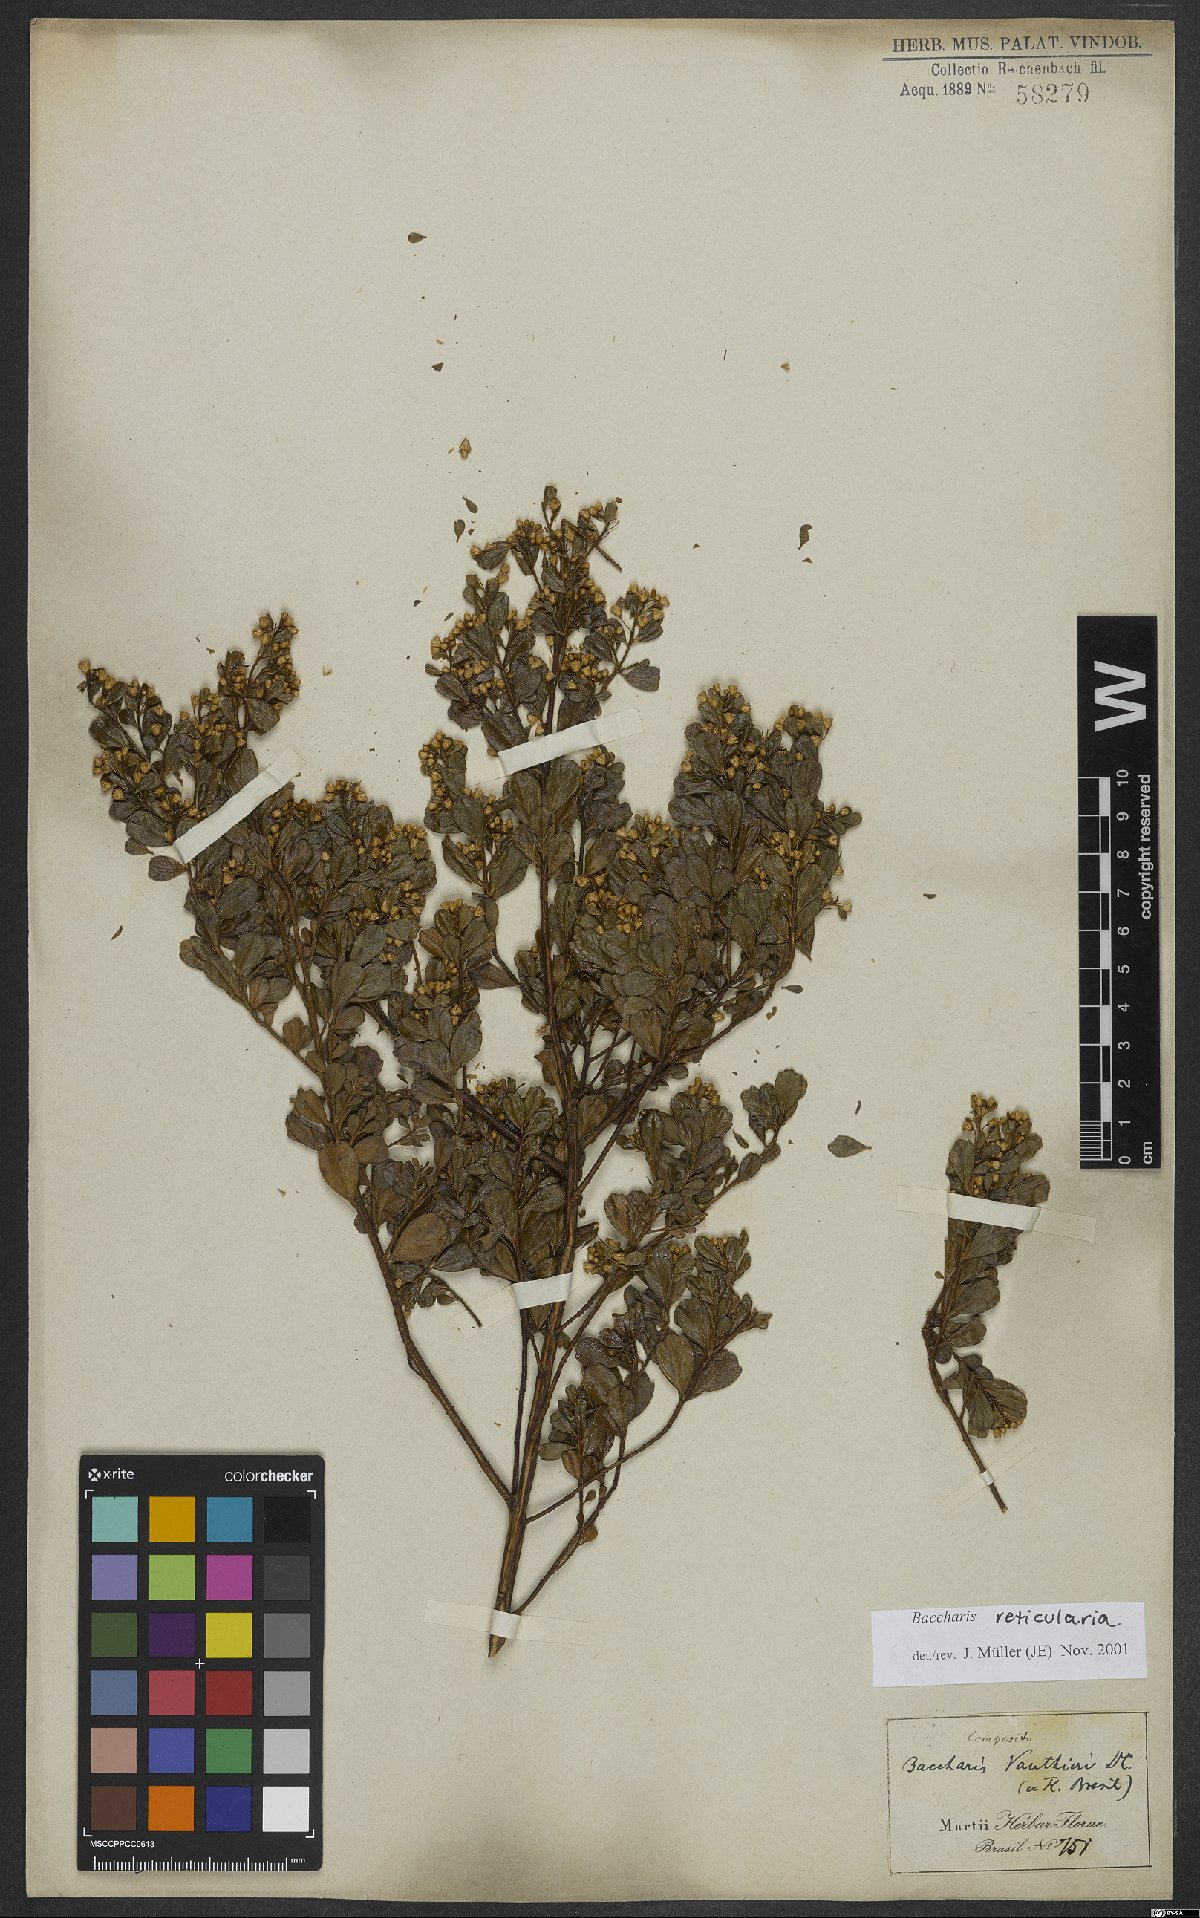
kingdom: Plantae
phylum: Tracheophyta
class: Magnoliopsida
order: Asterales
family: Asteraceae
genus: Baccharis
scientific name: Baccharis reticularia
